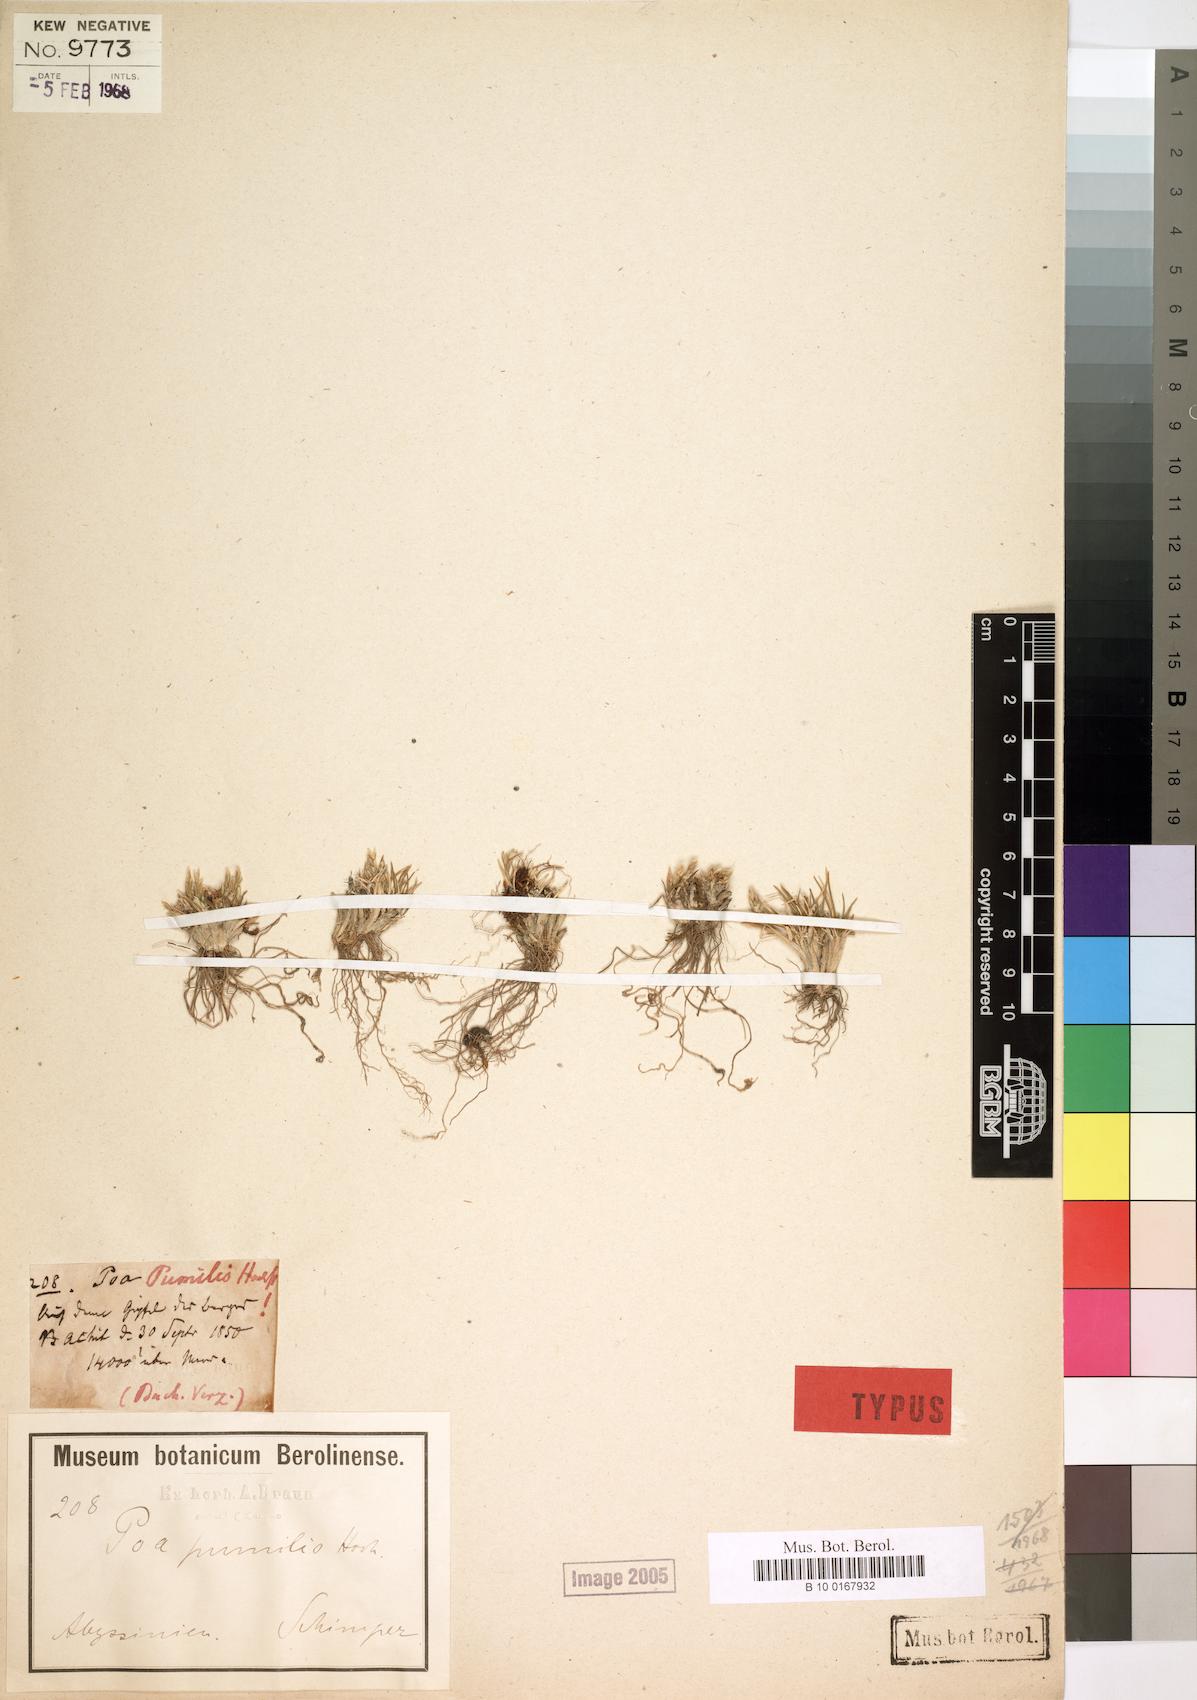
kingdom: Plantae
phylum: Tracheophyta
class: Liliopsida
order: Poales
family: Poaceae
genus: Poa
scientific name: Poa pumilio
